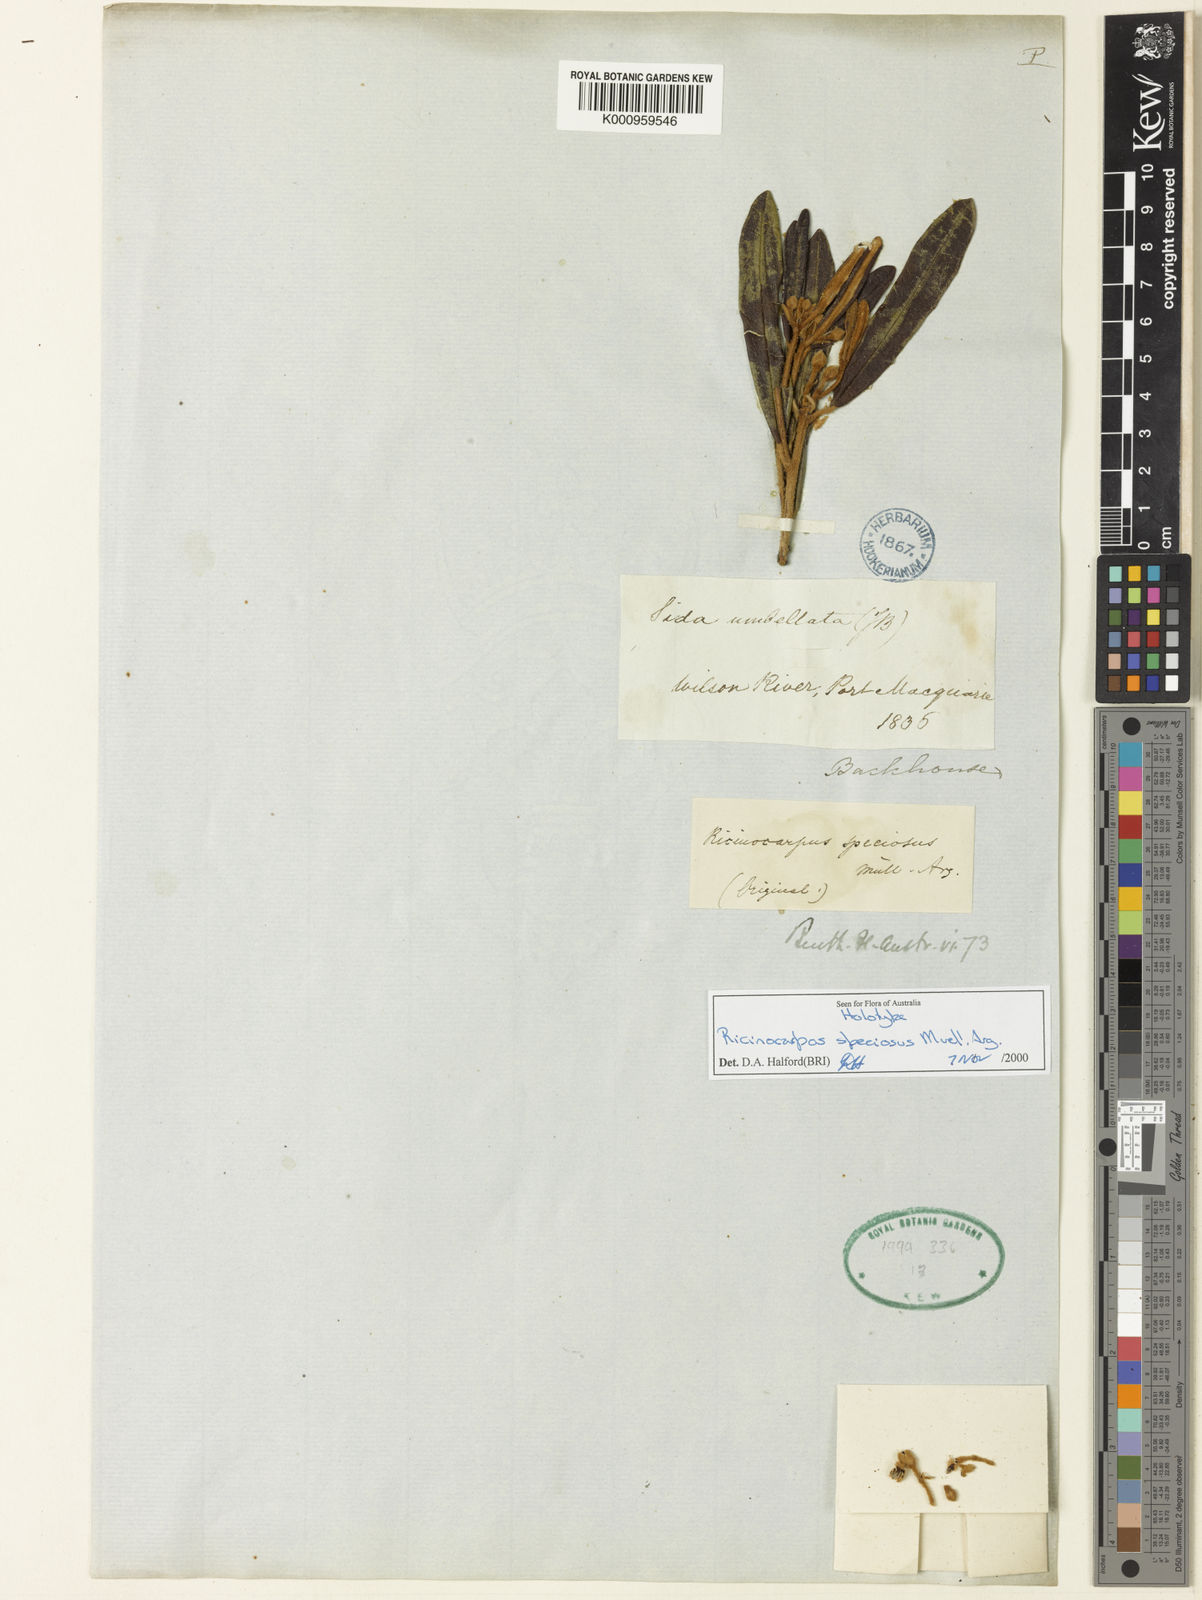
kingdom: Plantae
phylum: Tracheophyta
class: Magnoliopsida
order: Malpighiales
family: Euphorbiaceae
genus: Ricinocarpos
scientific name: Ricinocarpos
